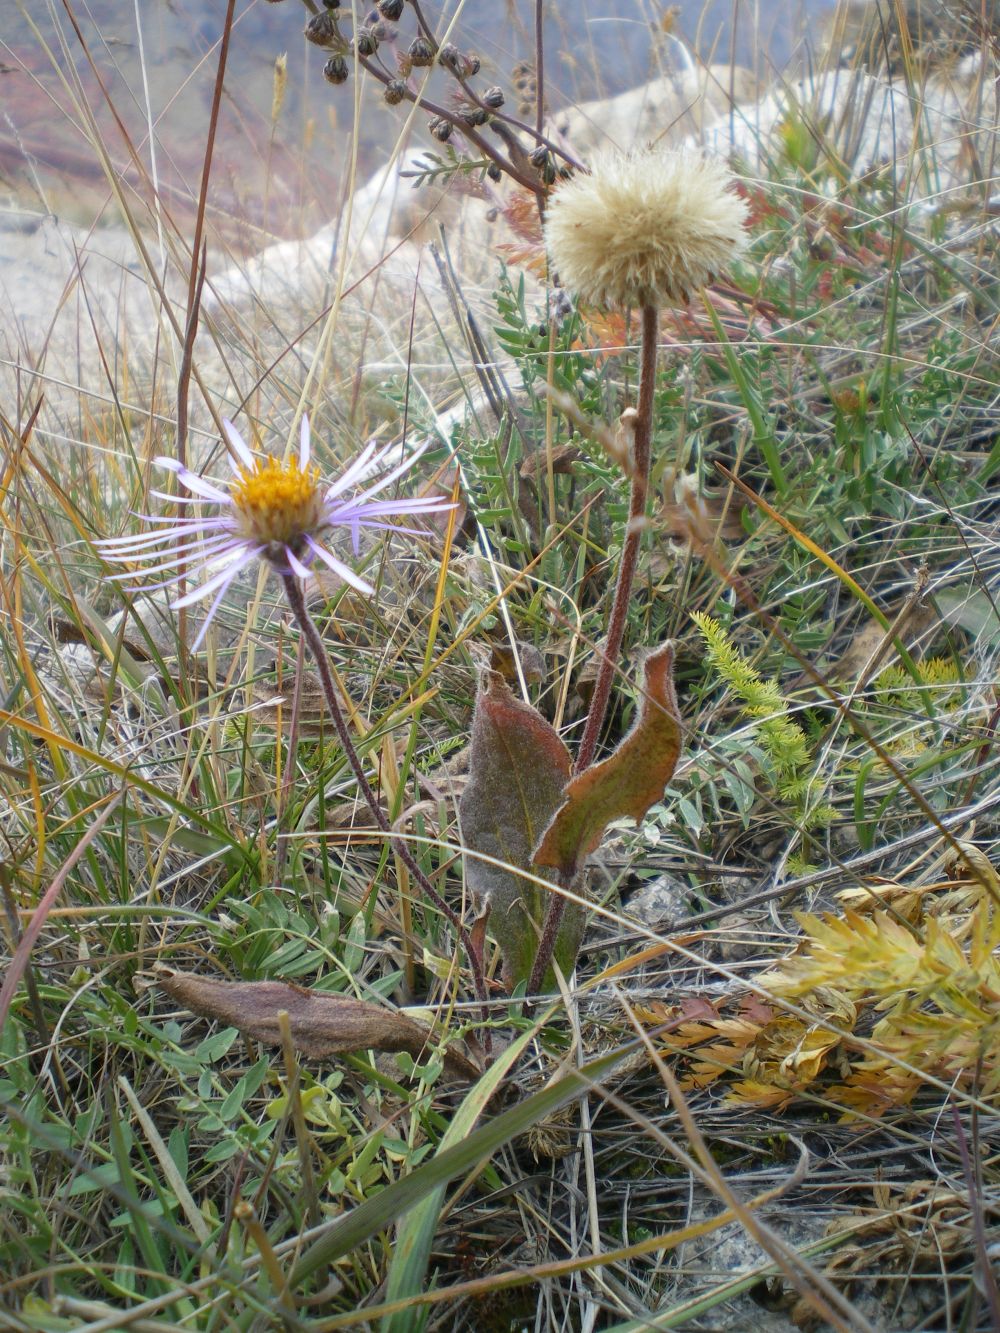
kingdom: Plantae
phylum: Tracheophyta
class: Magnoliopsida
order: Asterales
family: Asteraceae
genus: Tibetiodes
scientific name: Tibetiodes flaccida
